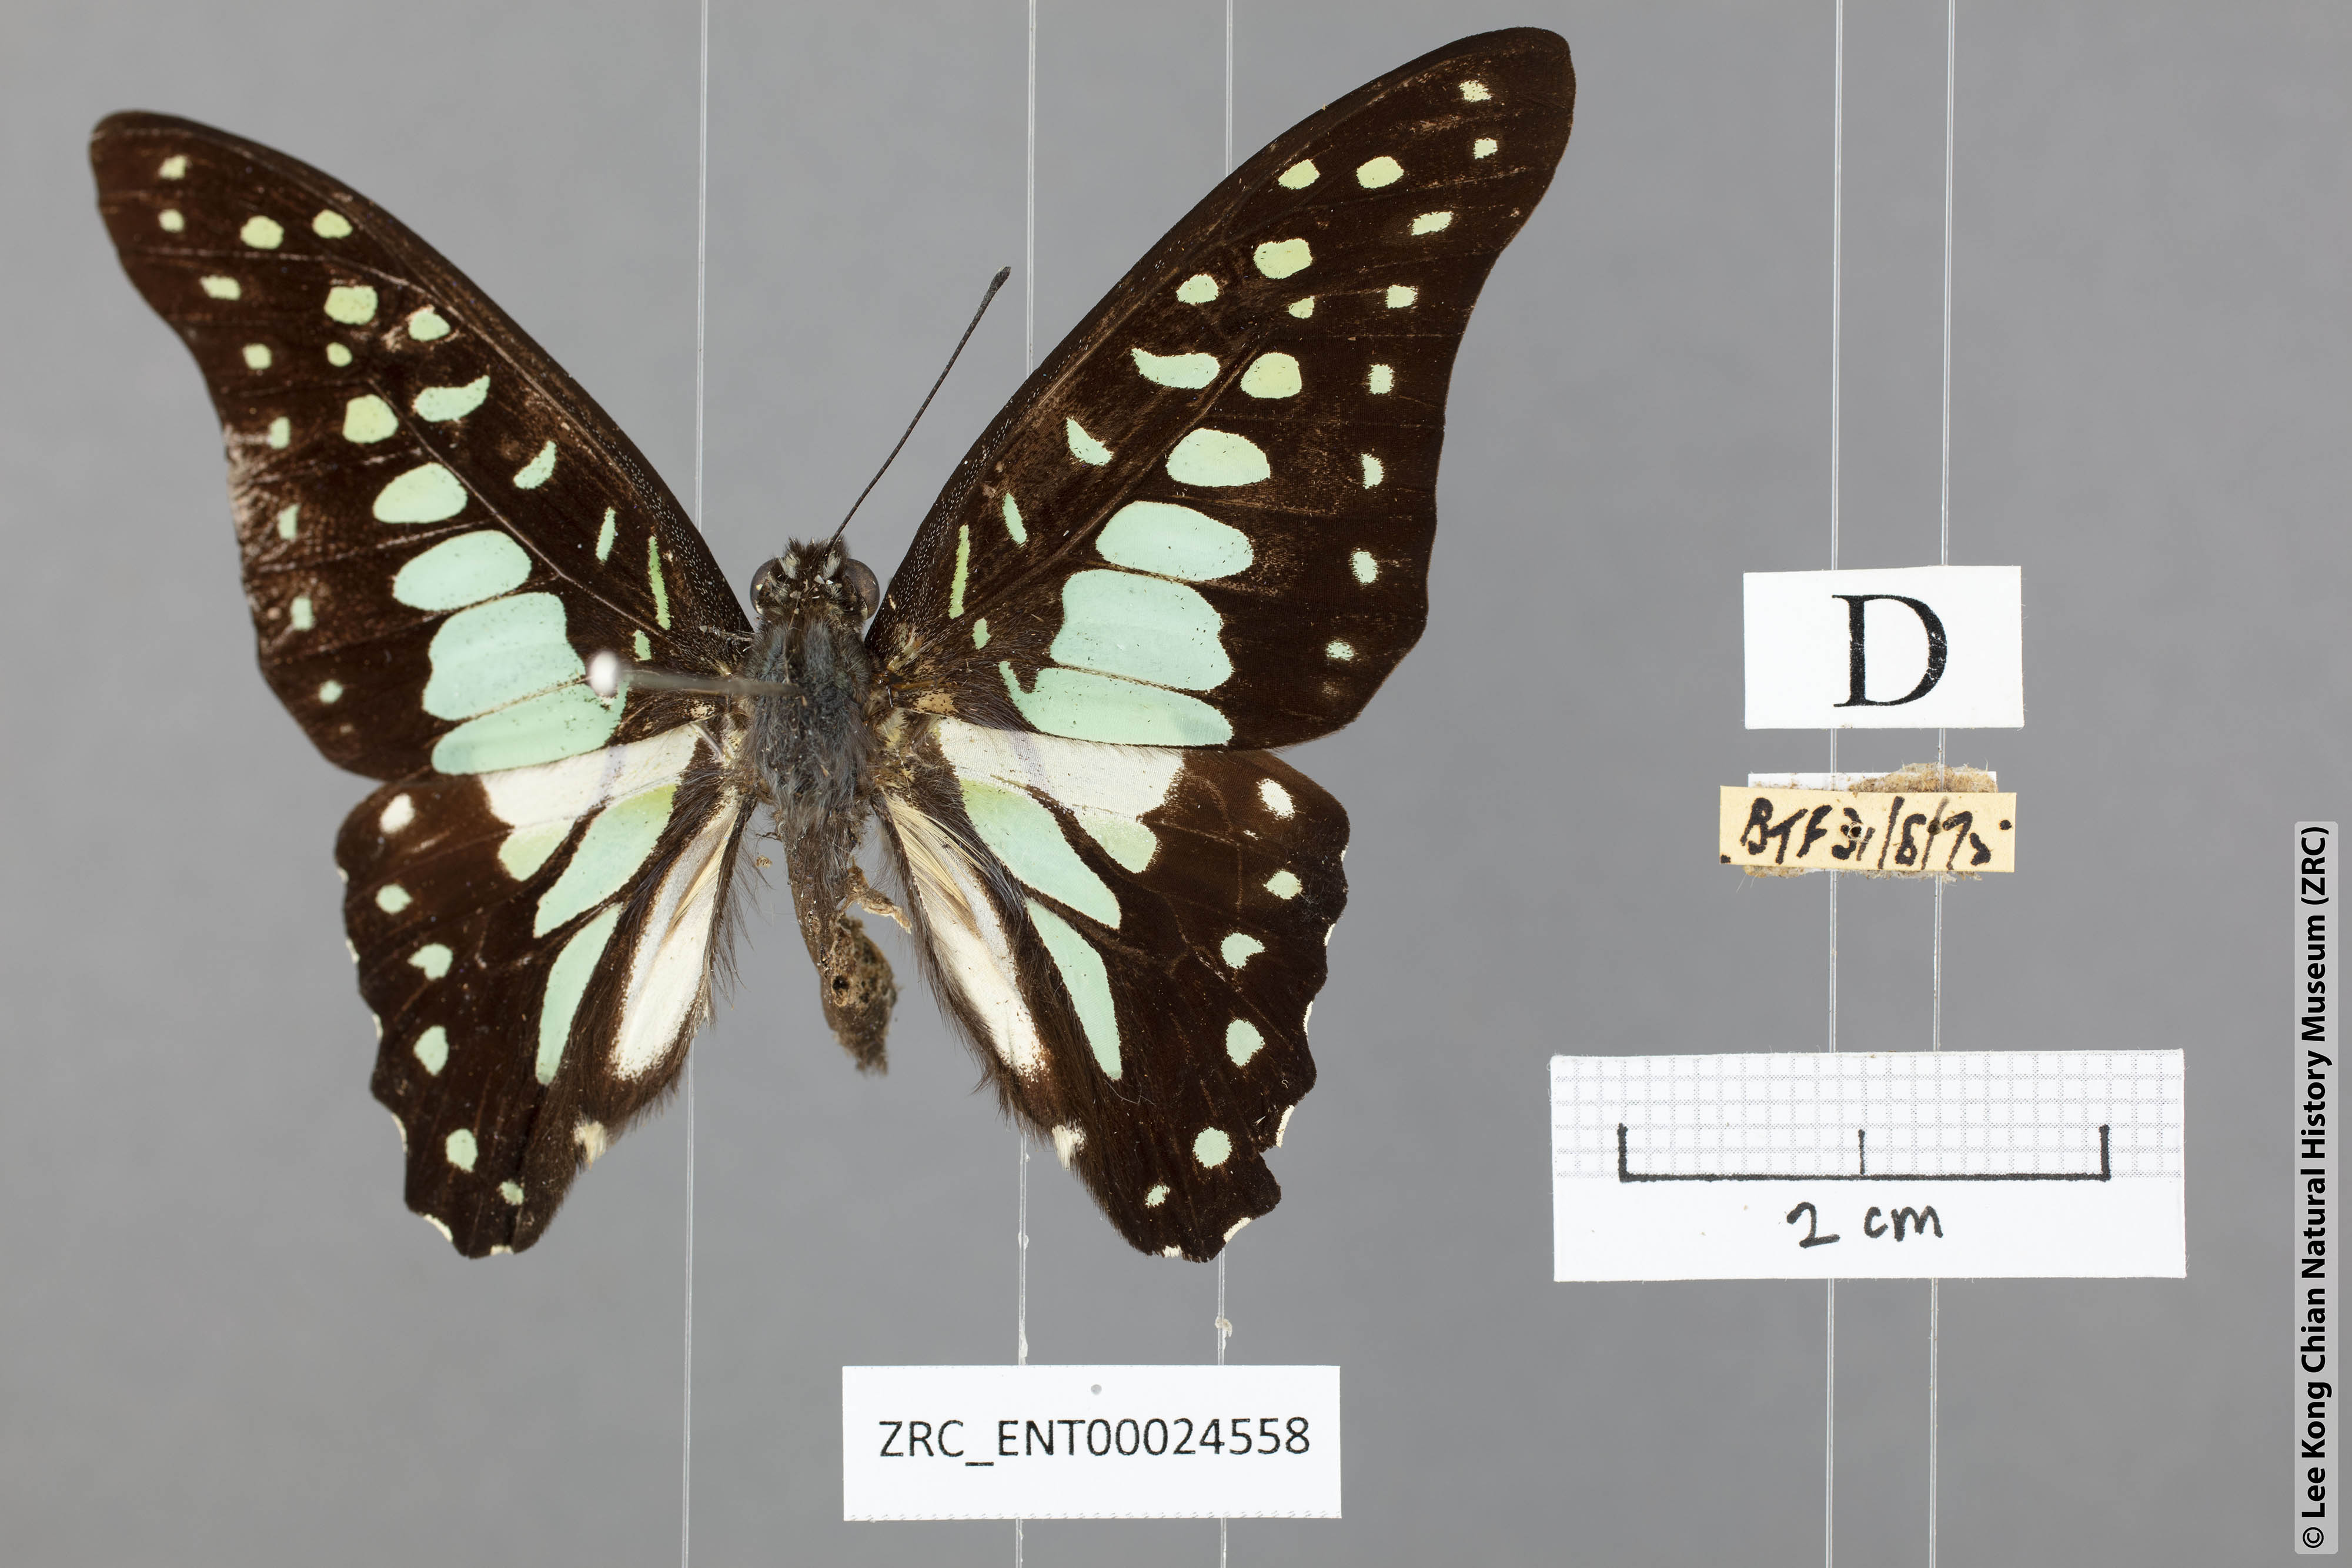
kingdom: Animalia
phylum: Arthropoda
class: Insecta
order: Lepidoptera
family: Papilionidae
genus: Graphium
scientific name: Graphium bathycles
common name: Veined jay
